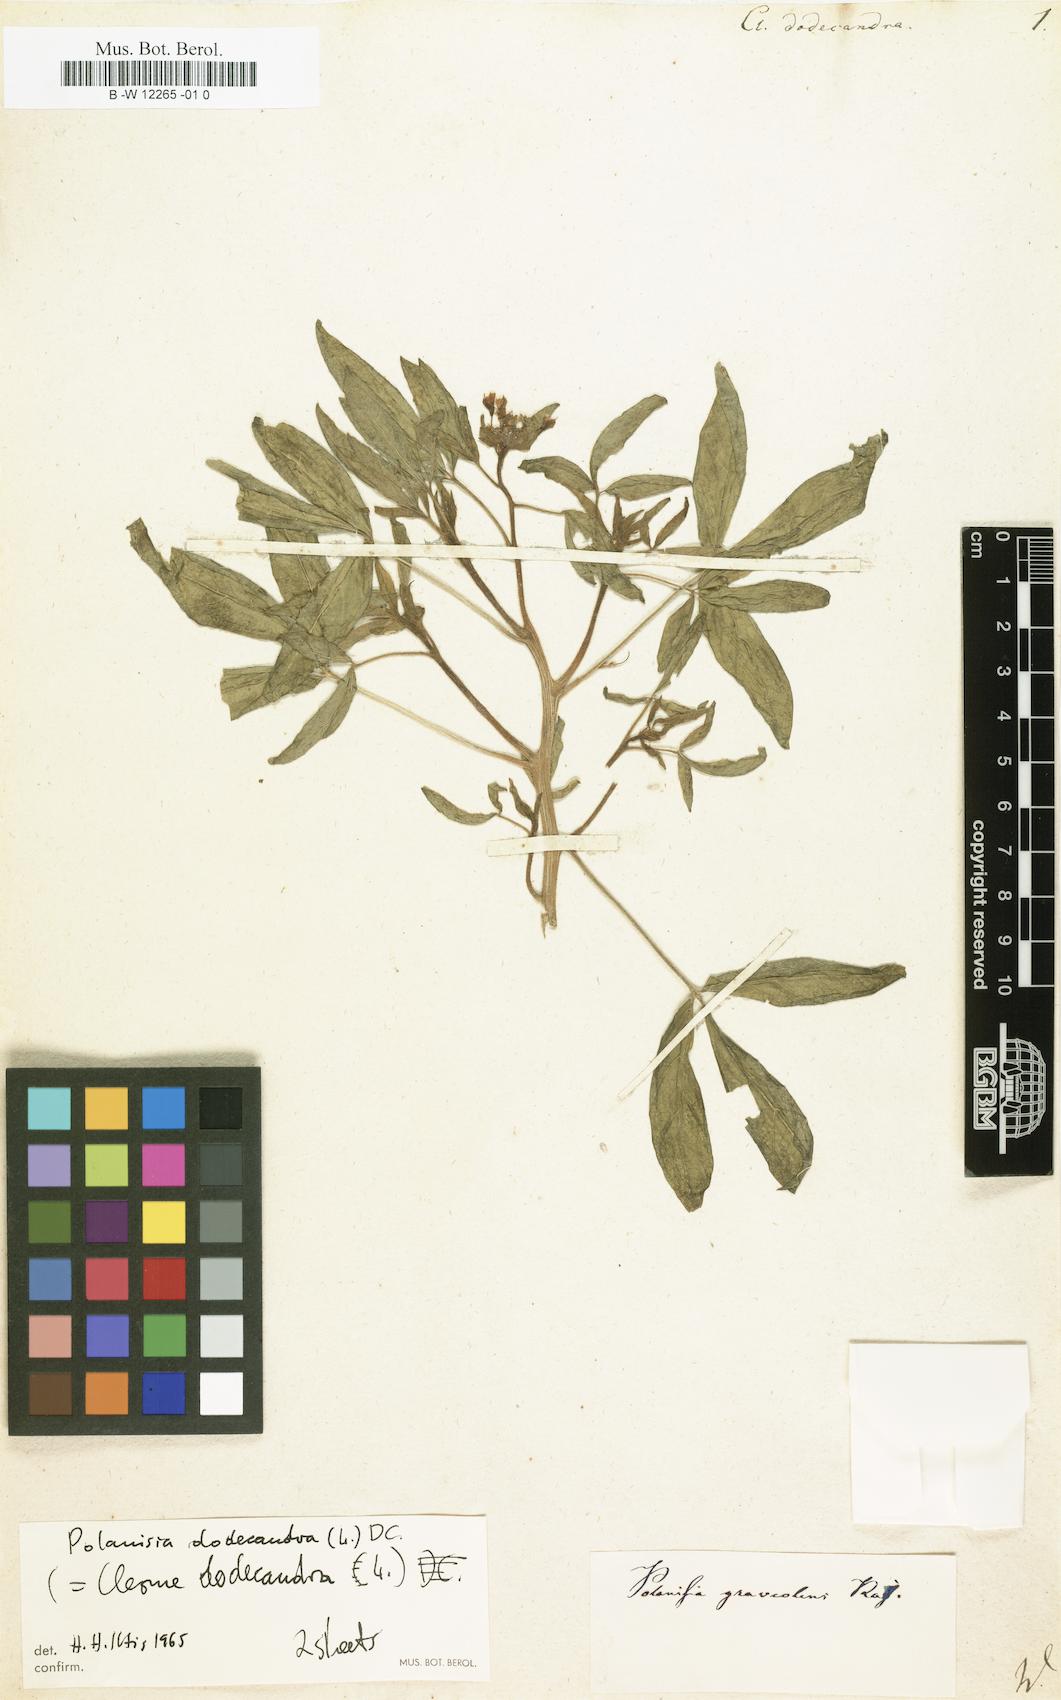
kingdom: Plantae
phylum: Tracheophyta
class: Magnoliopsida
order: Brassicales
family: Cleomaceae
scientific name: Cleomaceae
